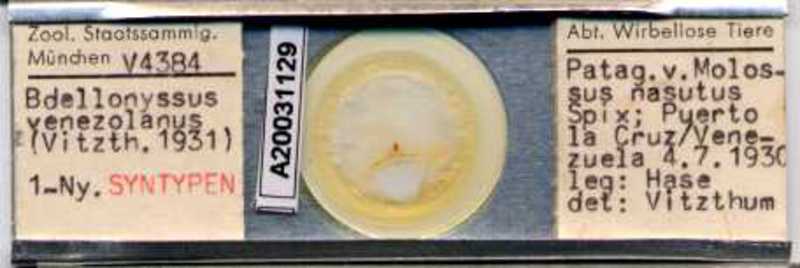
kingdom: Animalia
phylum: Arthropoda
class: Arachnida
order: Mesostigmata
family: Macronyssidae
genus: Chiroptonyssus
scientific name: Chiroptonyssus venezolanus
